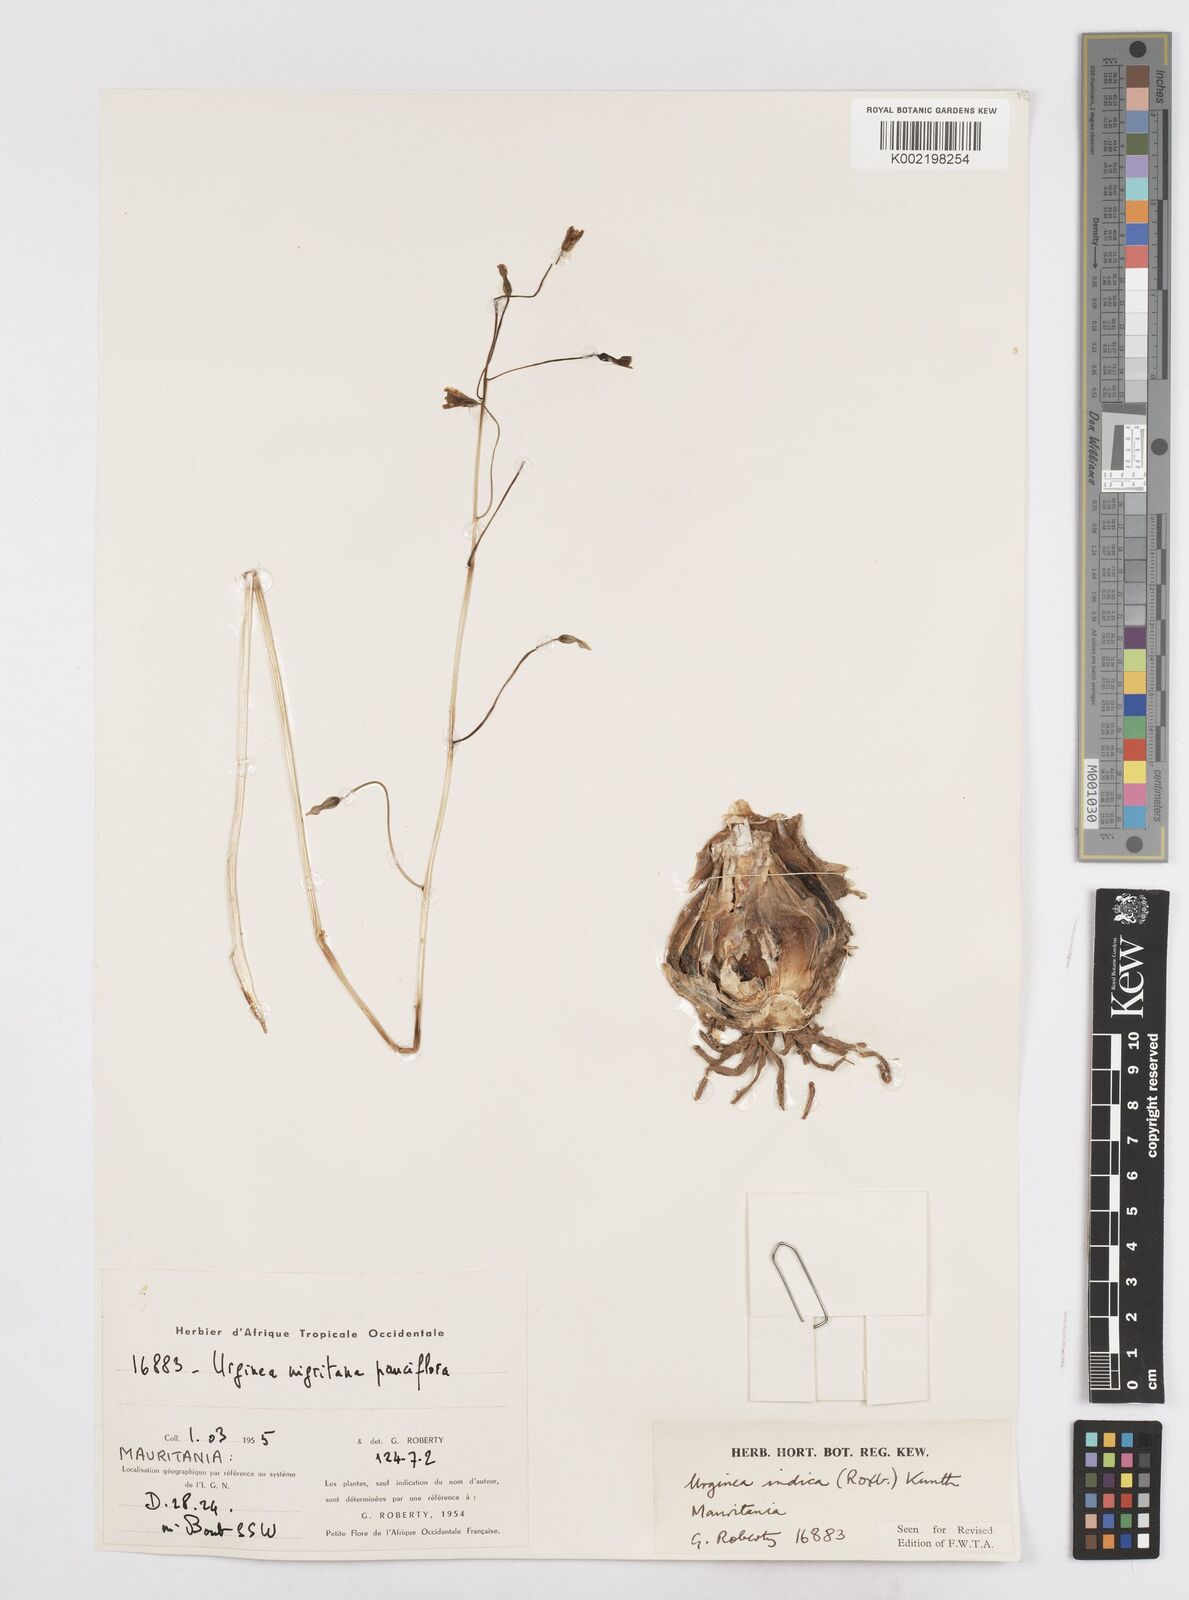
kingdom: Plantae
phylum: Tracheophyta
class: Liliopsida
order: Asparagales
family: Asparagaceae
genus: Drimia
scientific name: Drimia indica
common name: Indian-squill
